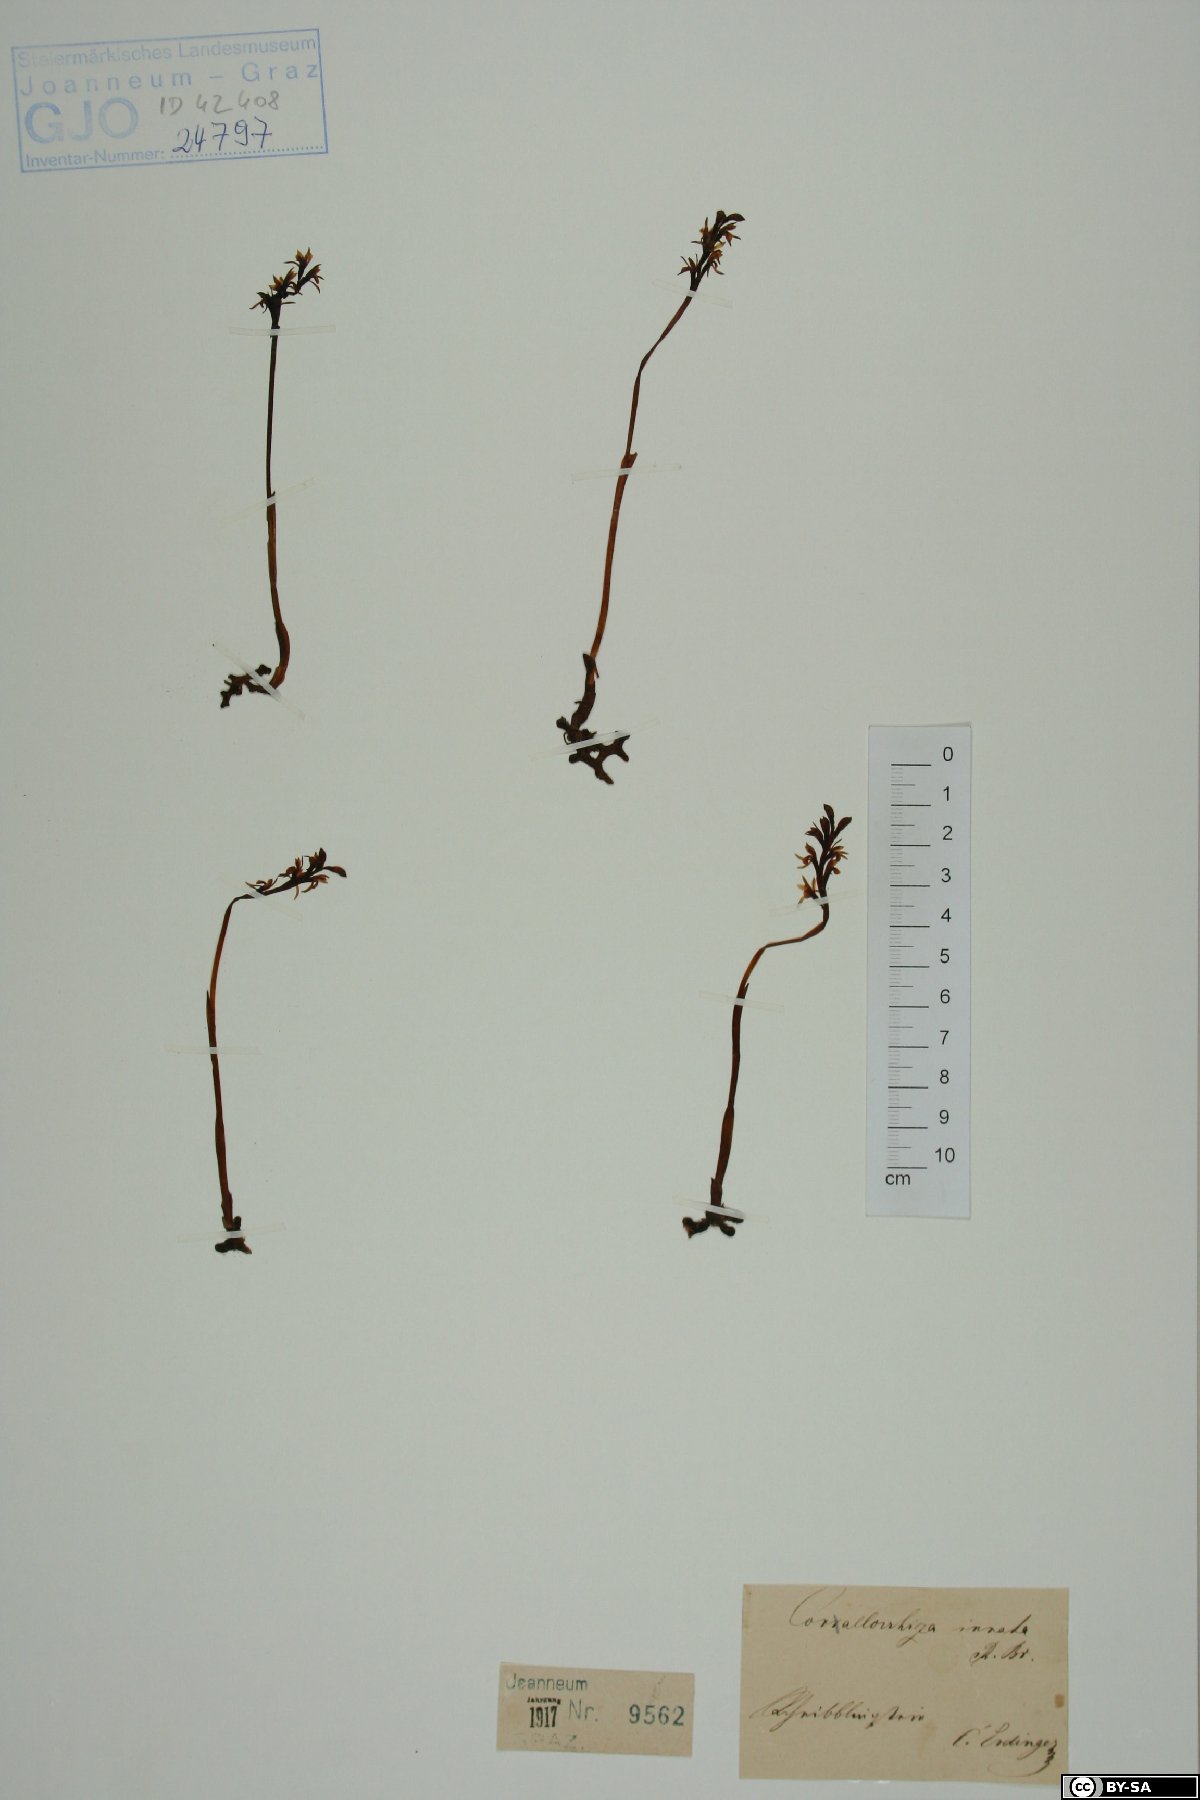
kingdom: Plantae
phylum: Tracheophyta
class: Liliopsida
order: Asparagales
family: Orchidaceae
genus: Corallorhiza
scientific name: Corallorhiza trifida
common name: Yellow coralroot
